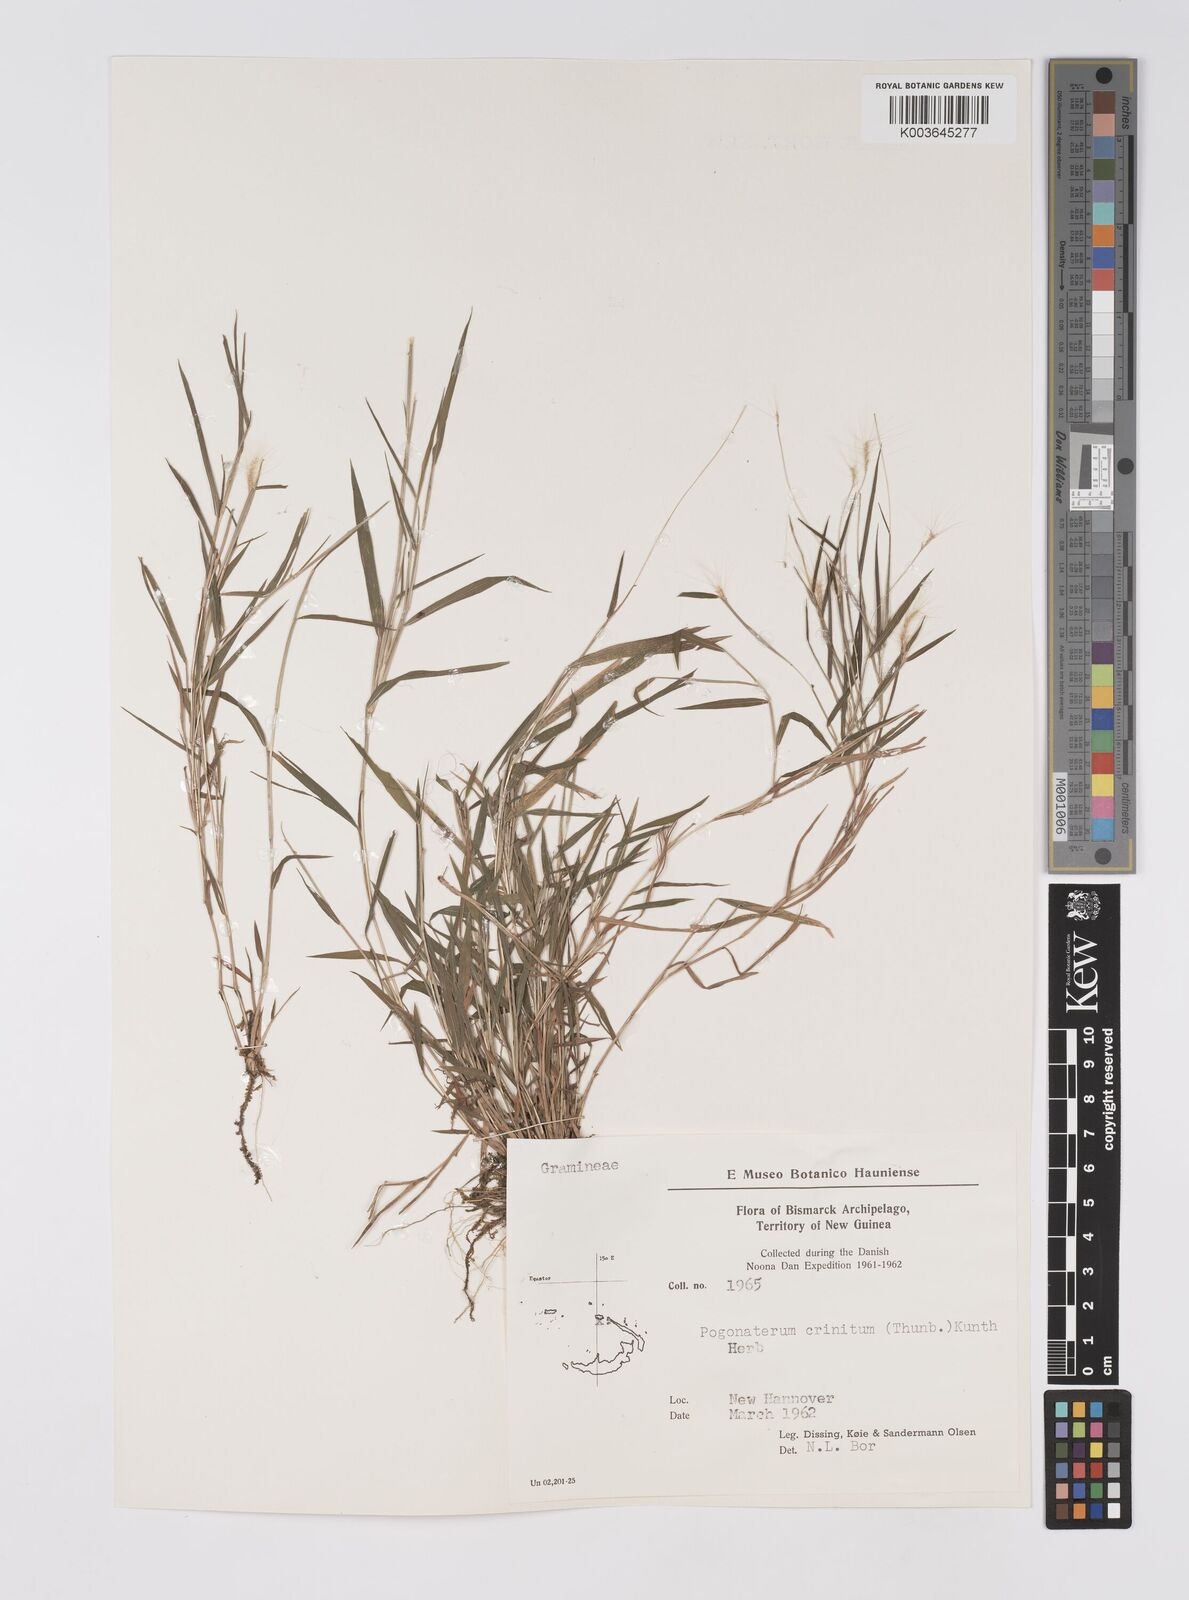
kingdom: Plantae
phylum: Tracheophyta
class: Liliopsida
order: Poales
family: Poaceae
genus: Pogonatherum
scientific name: Pogonatherum crinitum
